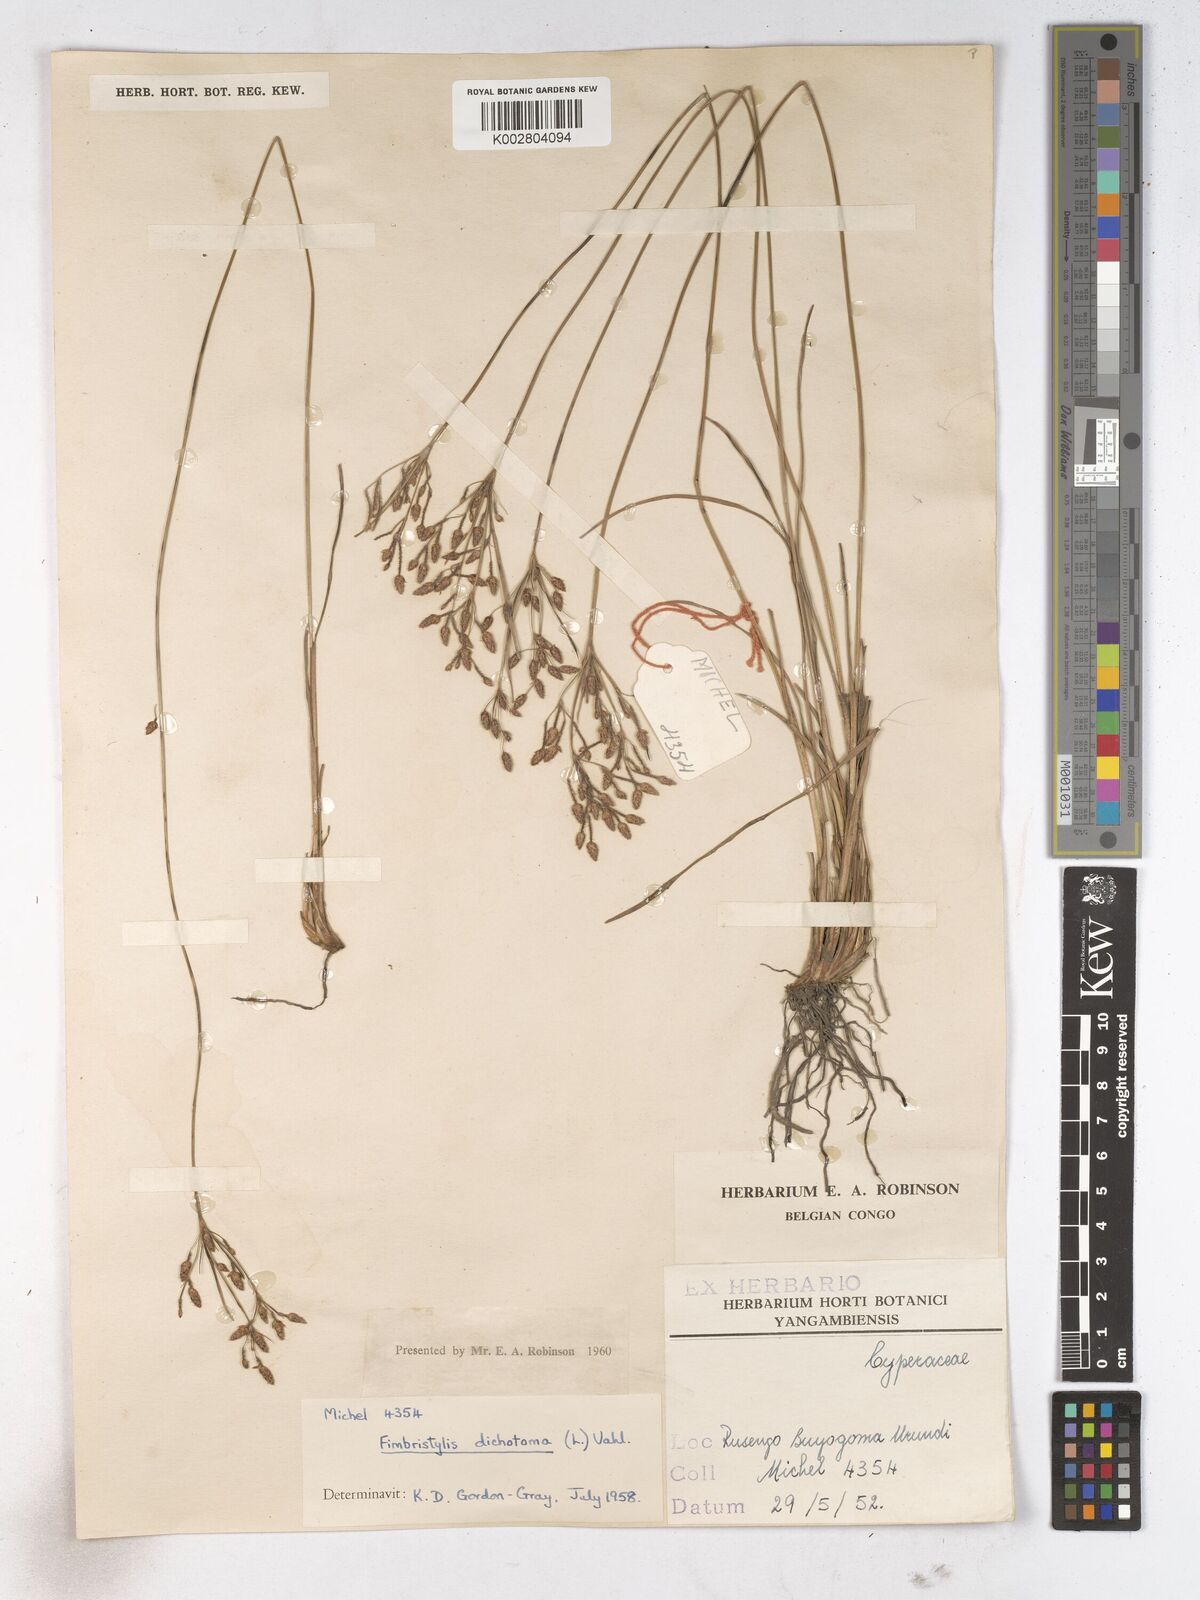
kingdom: Plantae
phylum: Tracheophyta
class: Liliopsida
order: Poales
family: Cyperaceae
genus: Fimbristylis
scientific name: Fimbristylis dichotoma
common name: Forked fimbry
